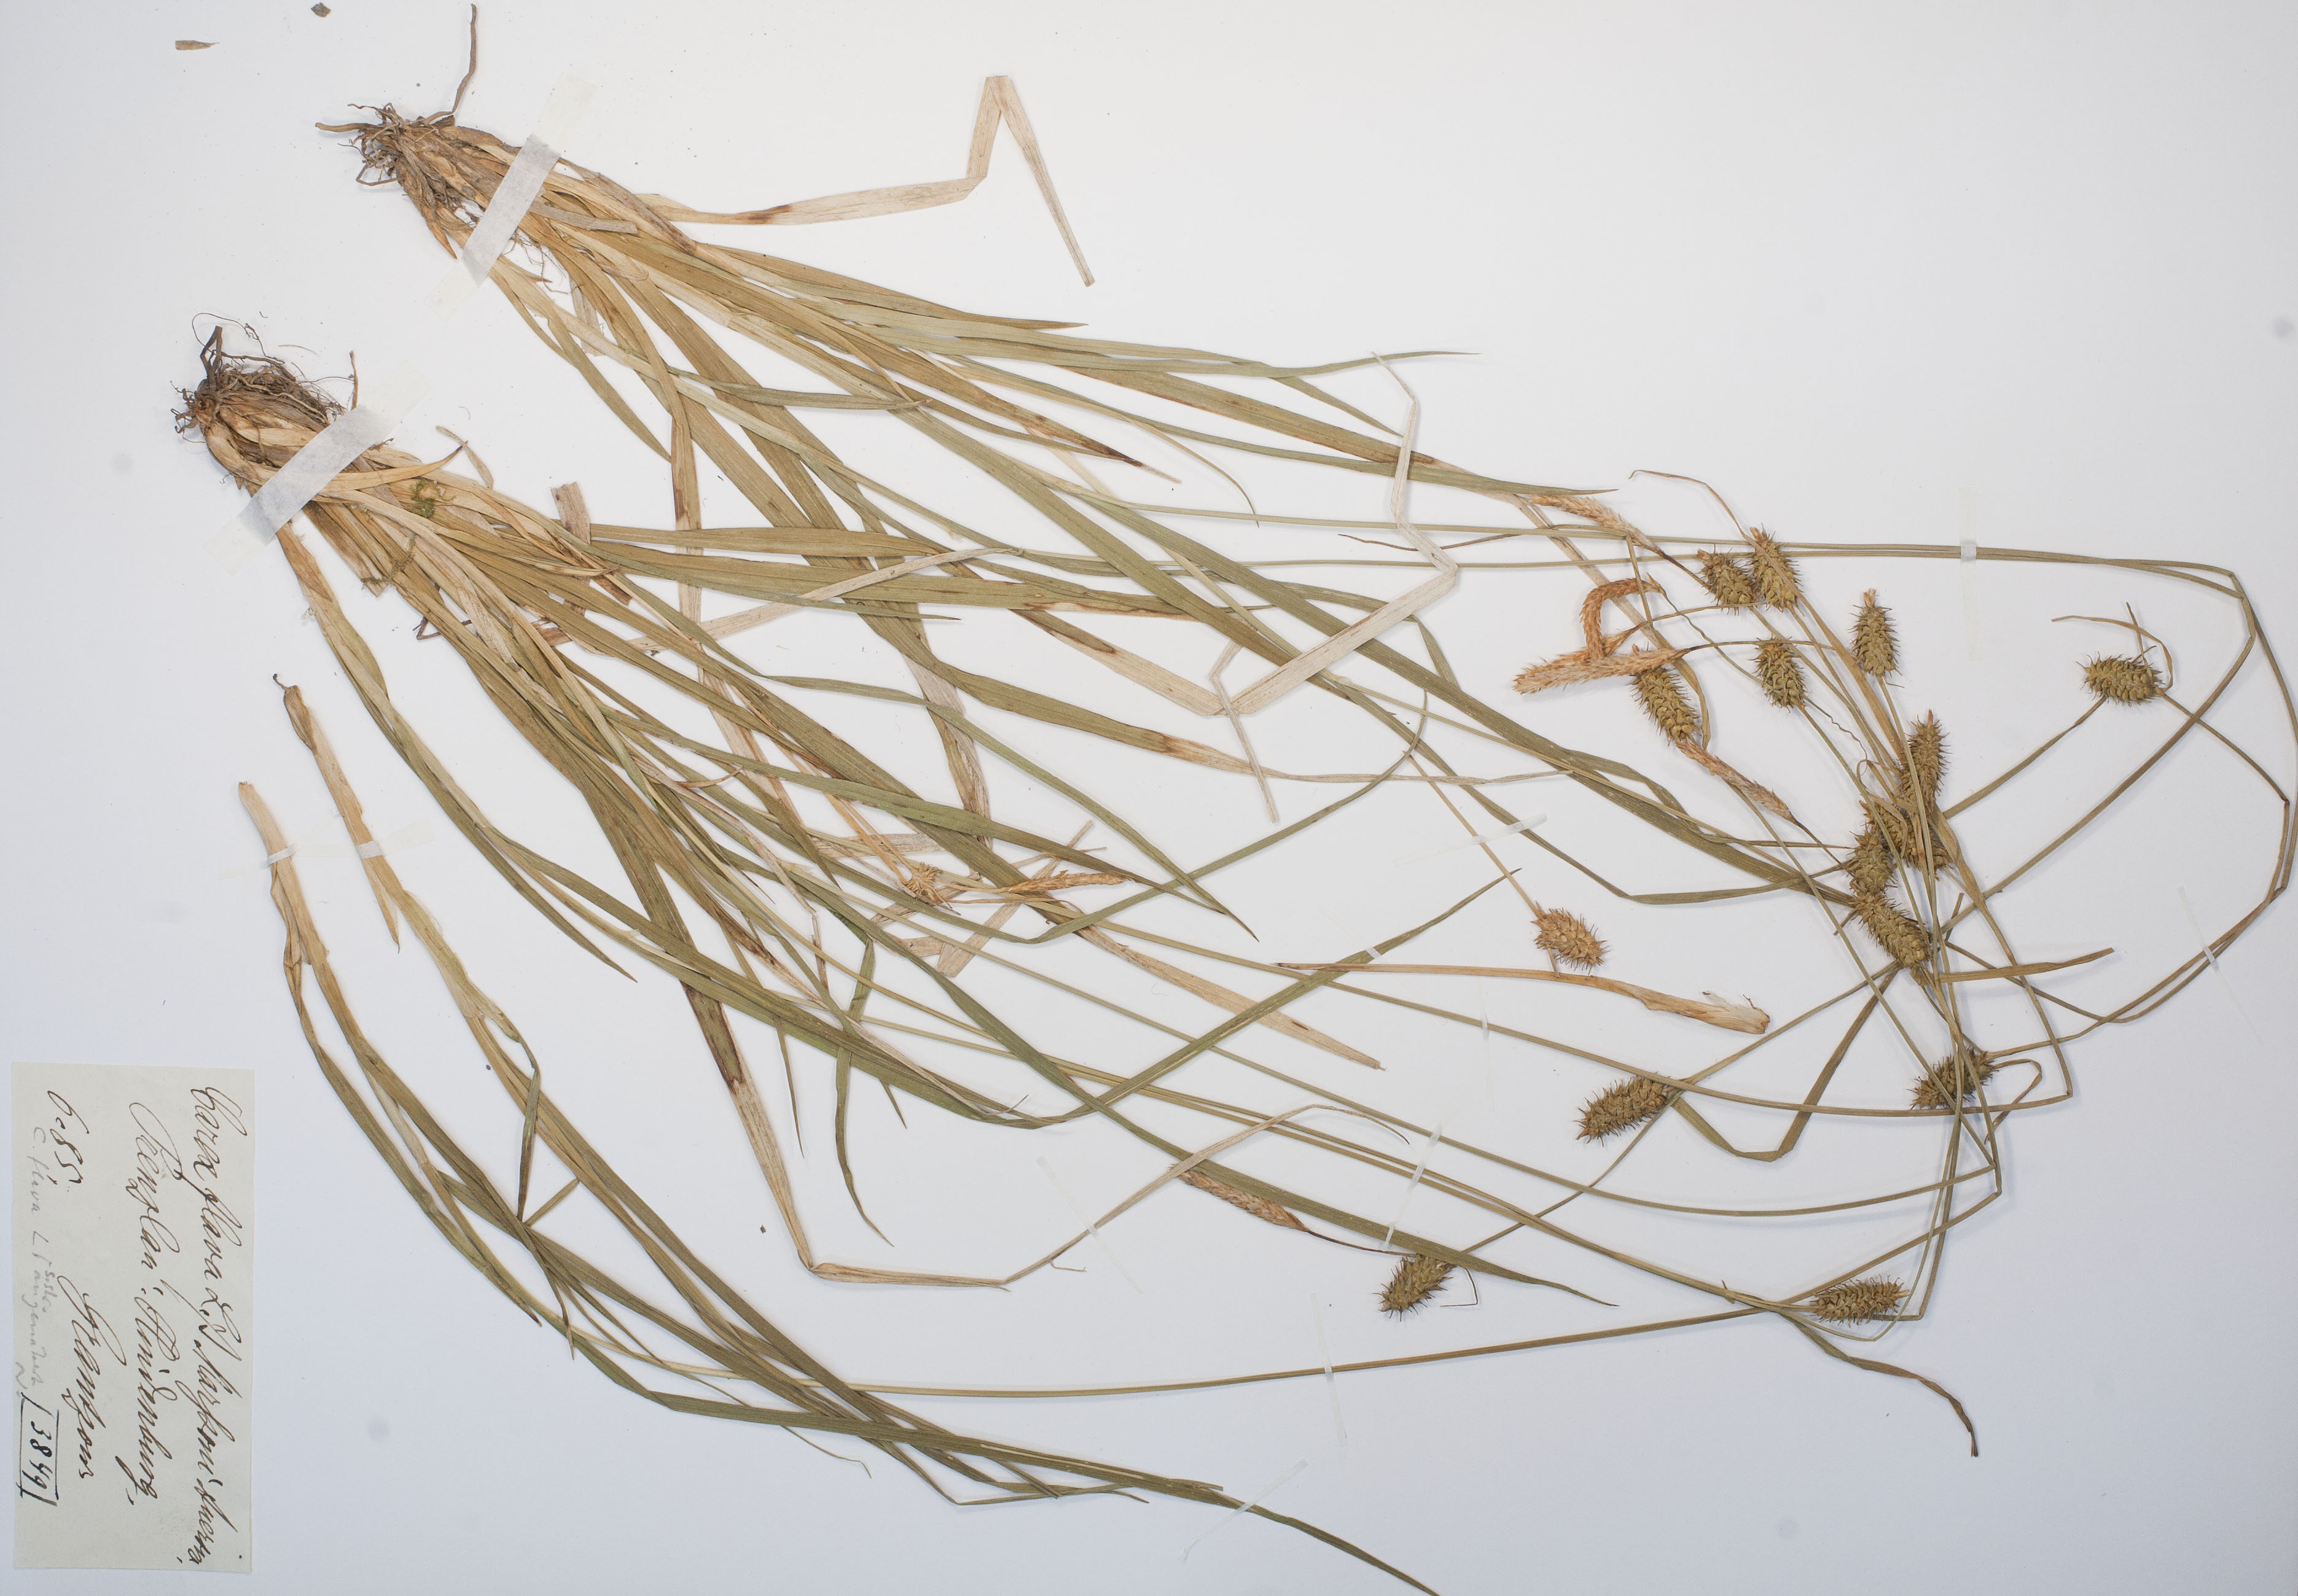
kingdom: Plantae
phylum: Tracheophyta
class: Liliopsida
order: Poales
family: Cyperaceae
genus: Carex
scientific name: Carex flava
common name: Large yellow-sedge
